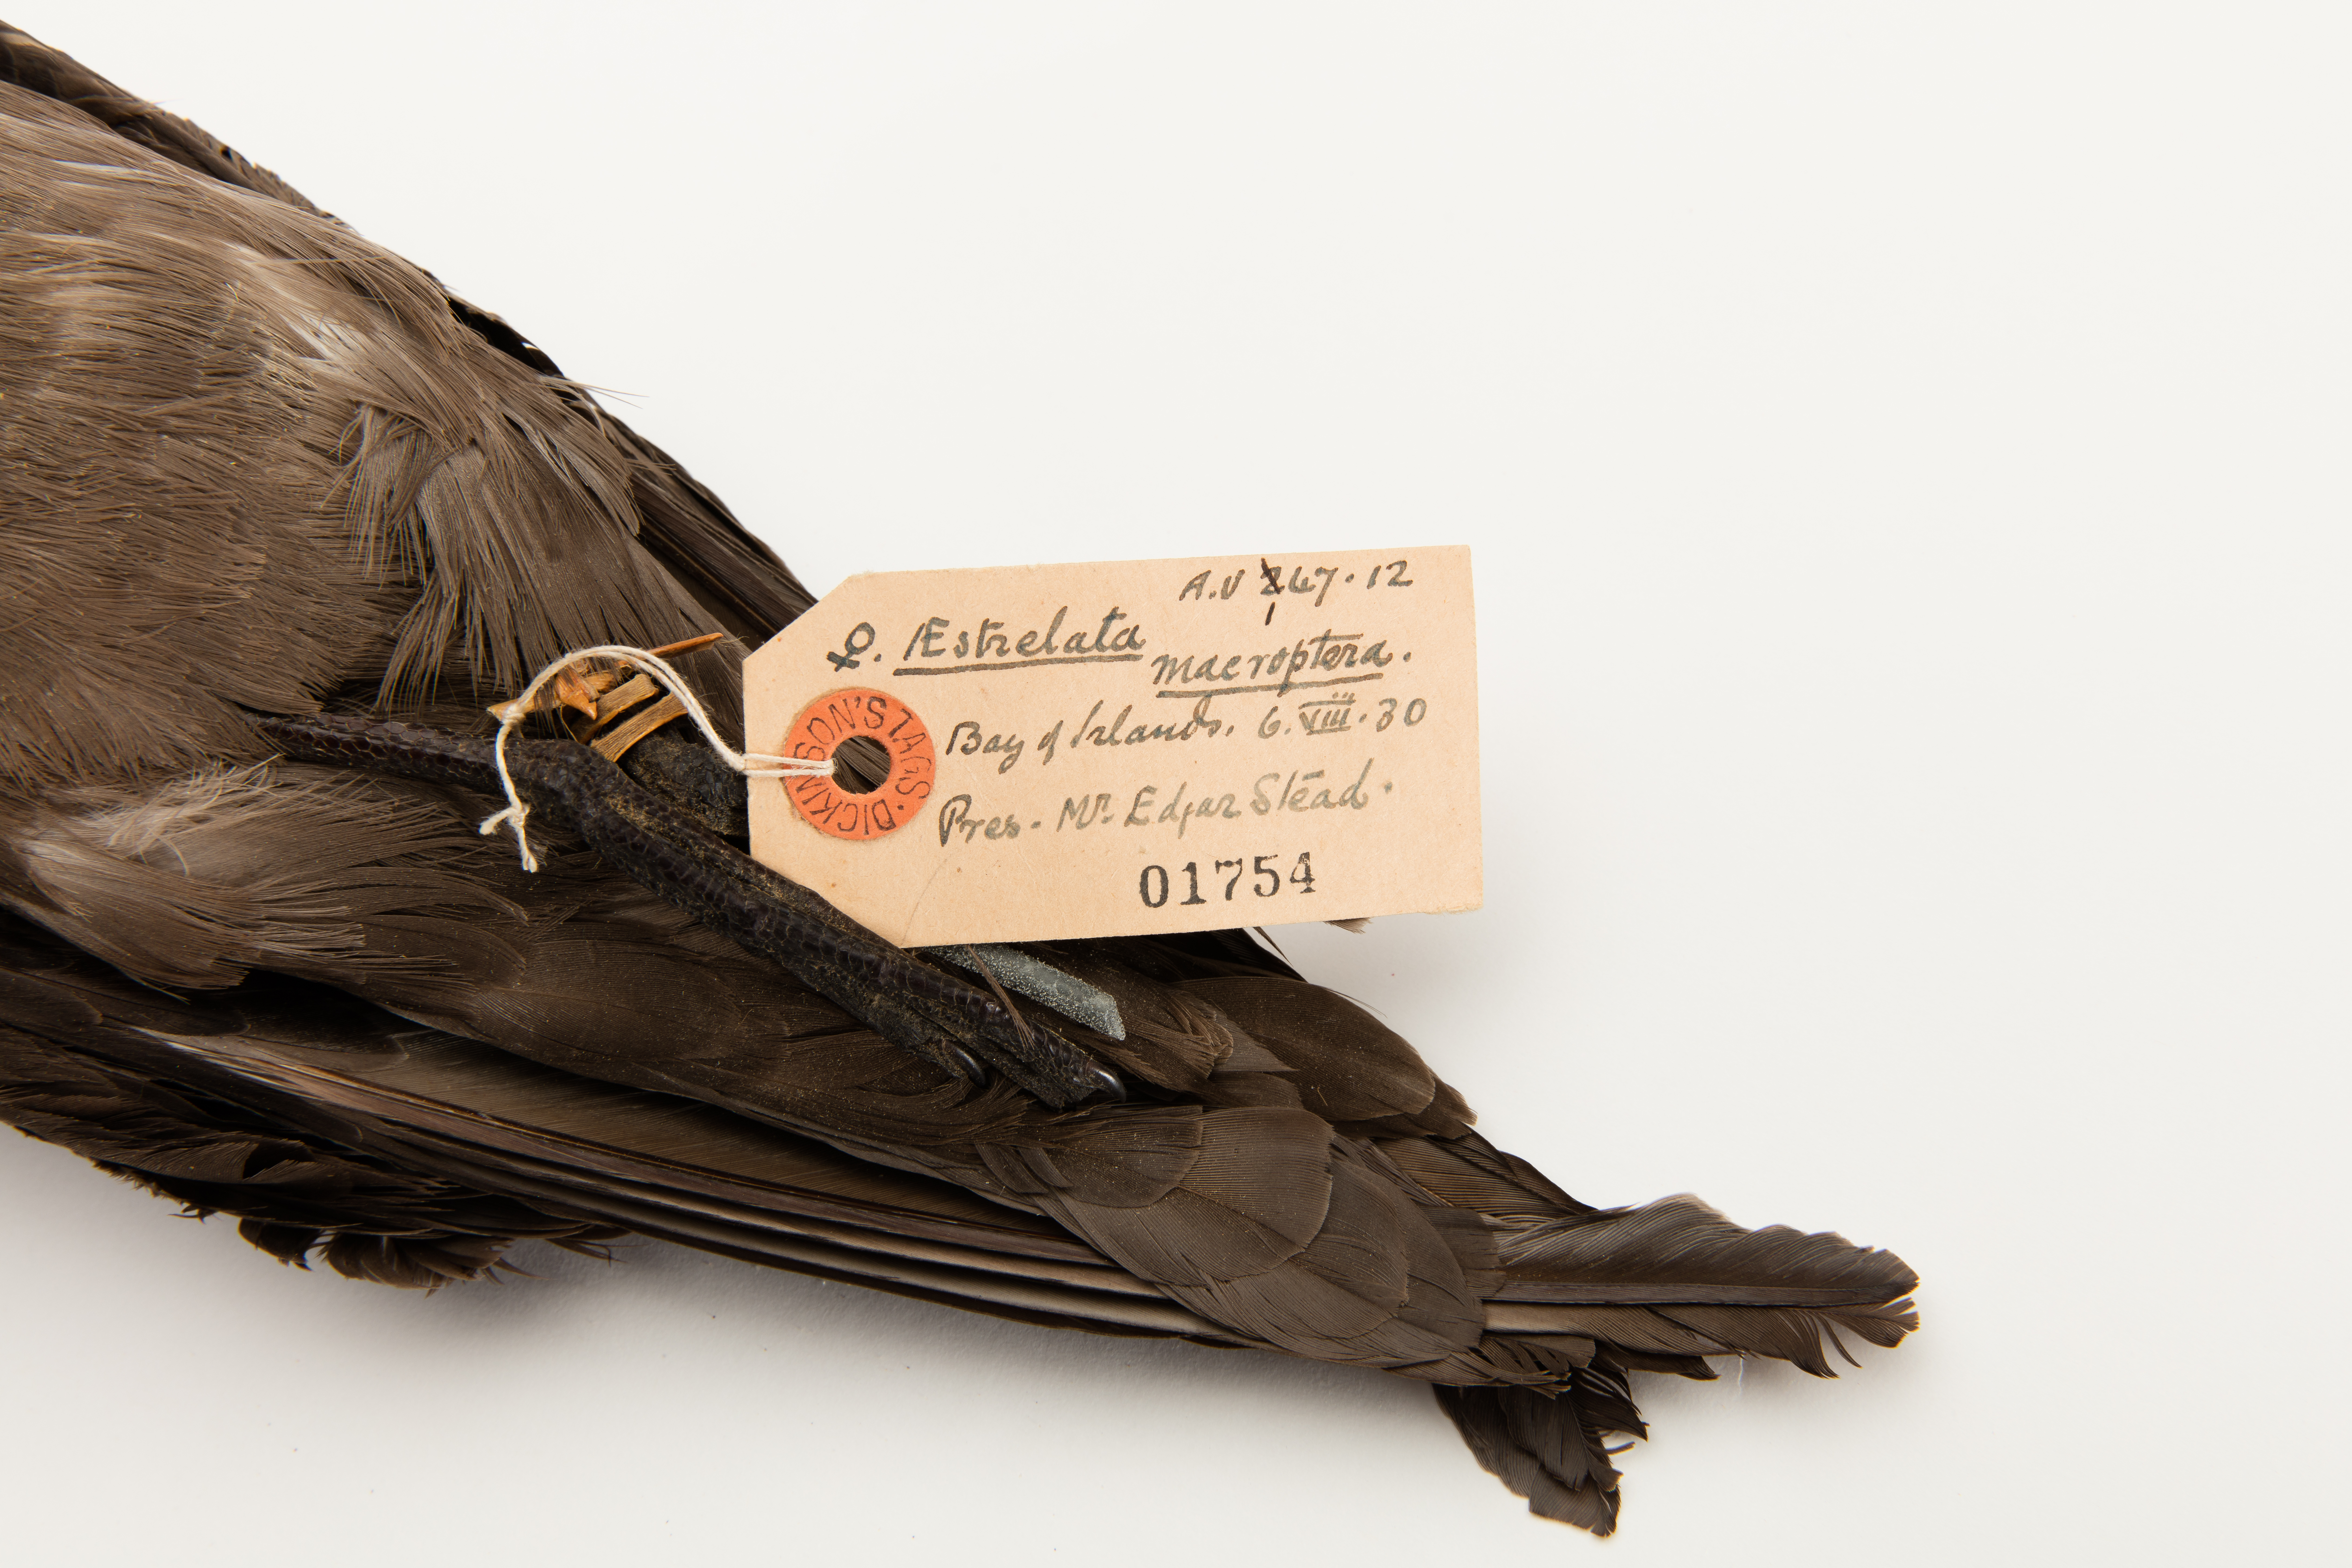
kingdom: Animalia
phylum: Chordata
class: Aves
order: Procellariiformes
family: Procellariidae
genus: Pterodroma
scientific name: Pterodroma macroptera
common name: Great-winged petrel
